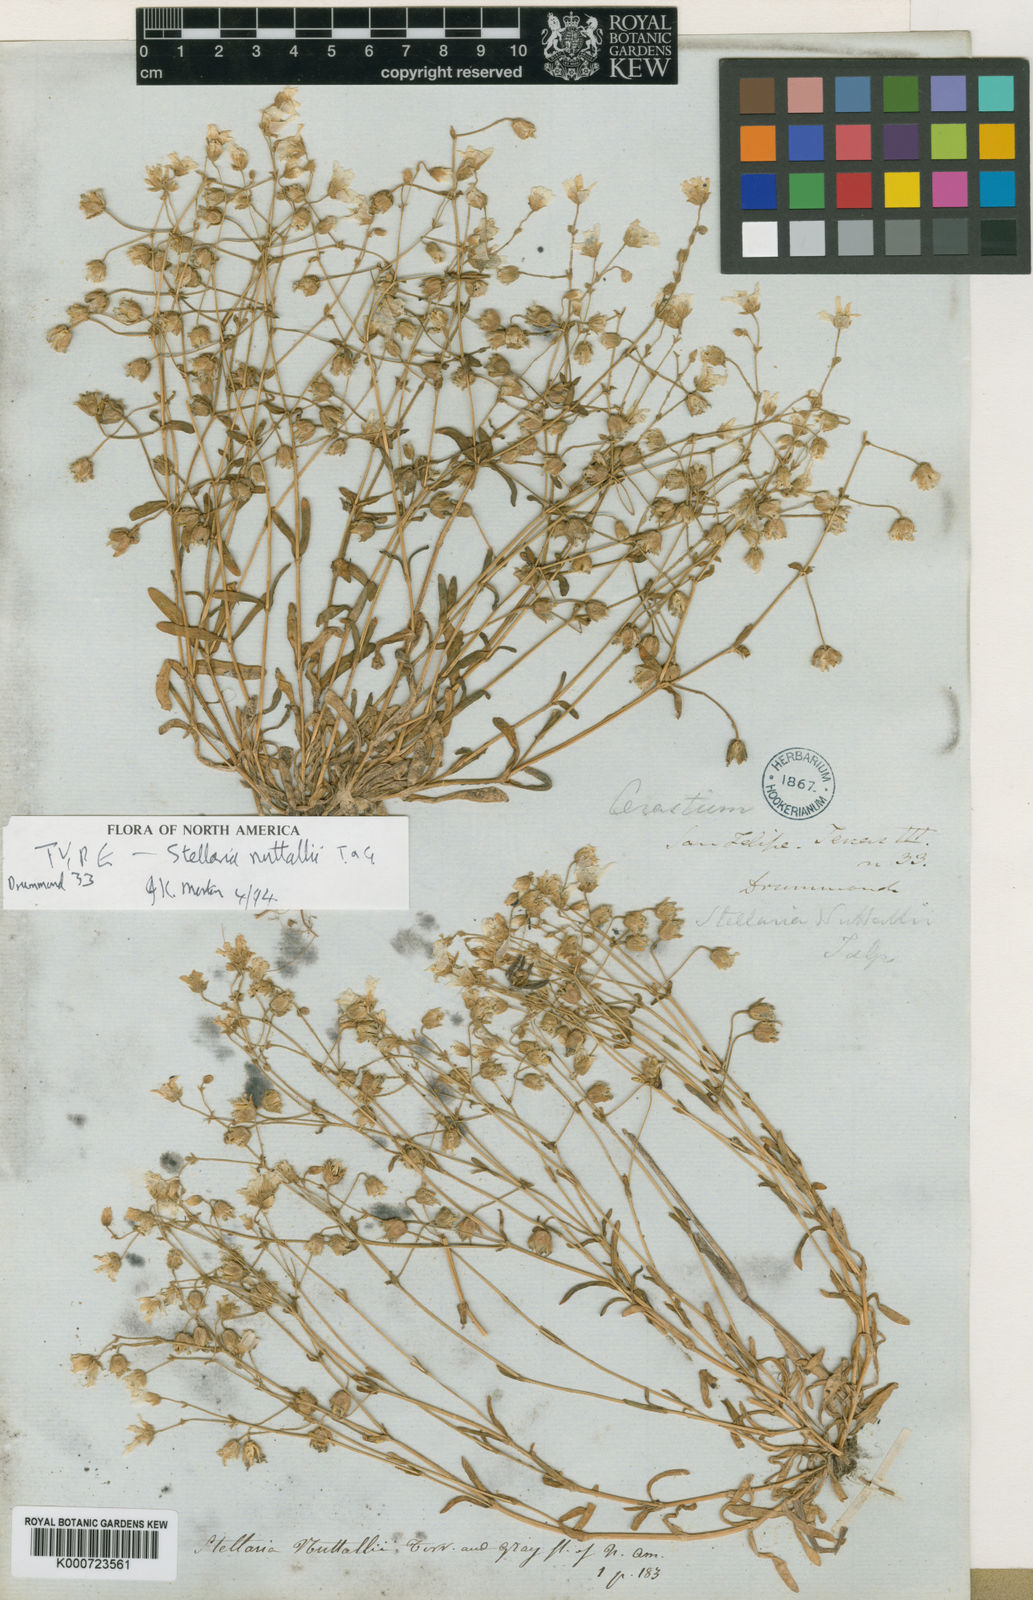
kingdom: Plantae
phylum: Tracheophyta
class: Magnoliopsida
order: Caryophyllales
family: Caryophyllaceae
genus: Geocarpon
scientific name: Geocarpon nuttallii
